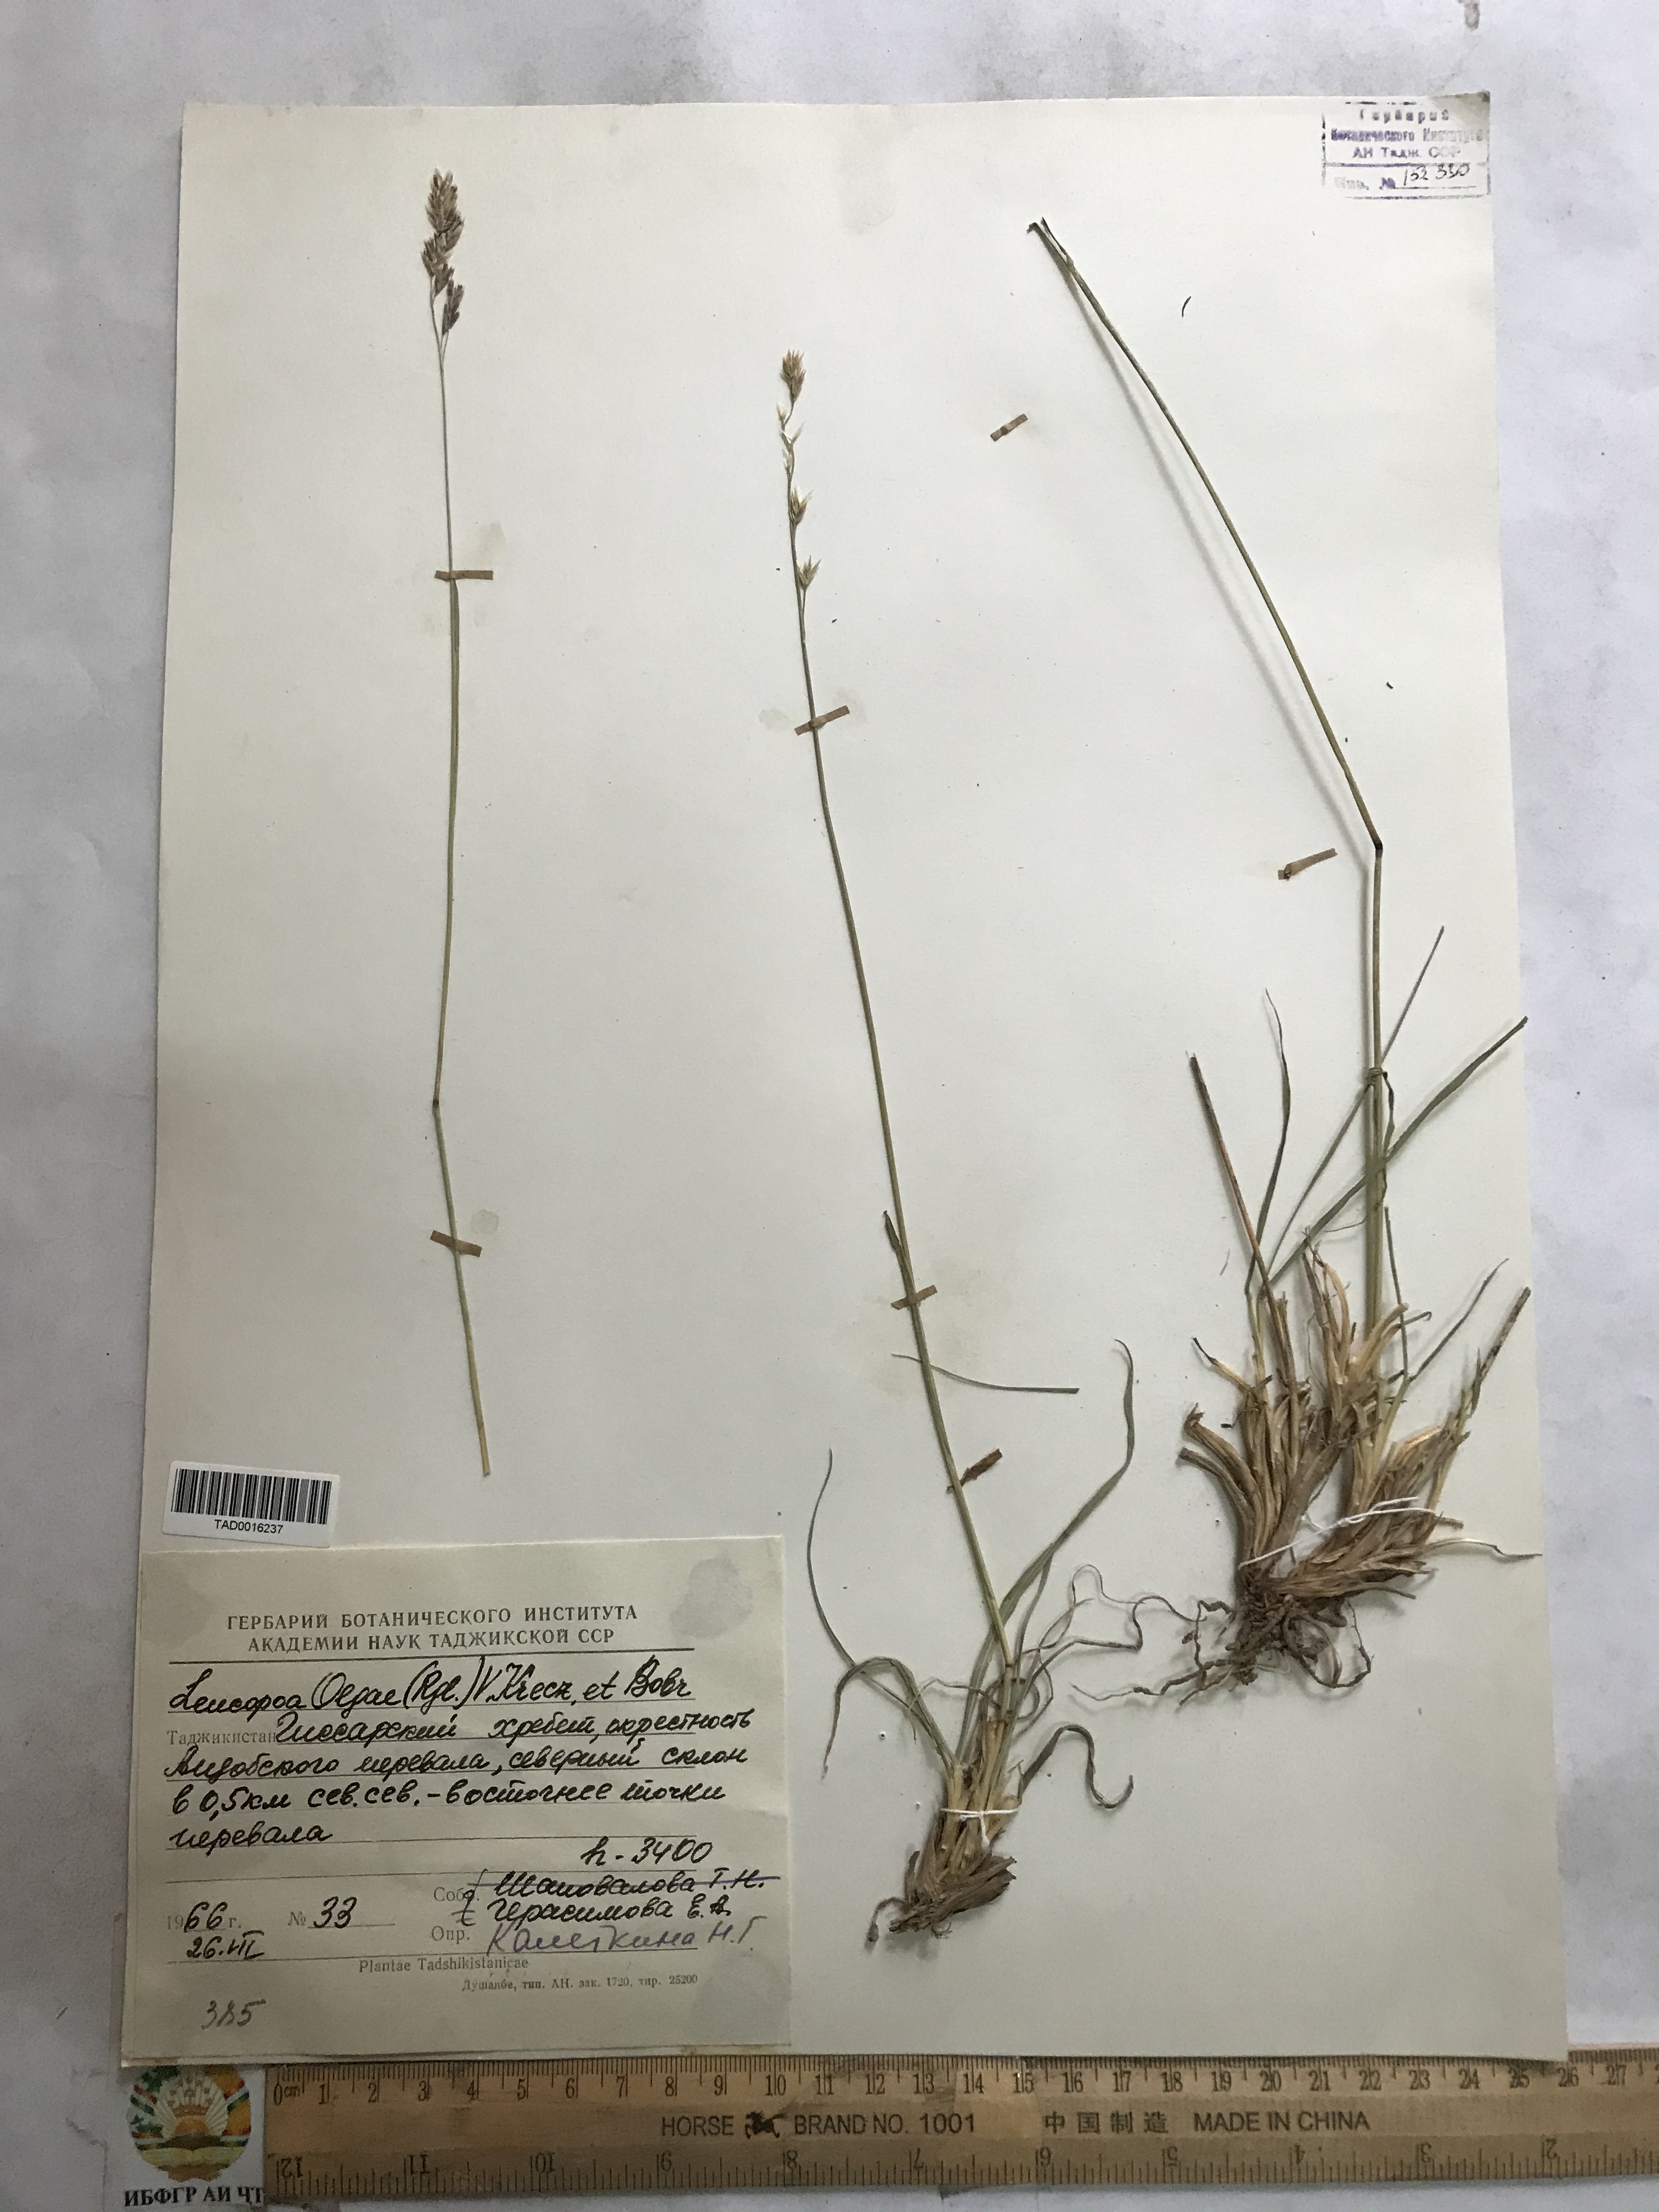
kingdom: Plantae
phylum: Tracheophyta
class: Liliopsida
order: Poales
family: Poaceae
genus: Festuca
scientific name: Festuca
